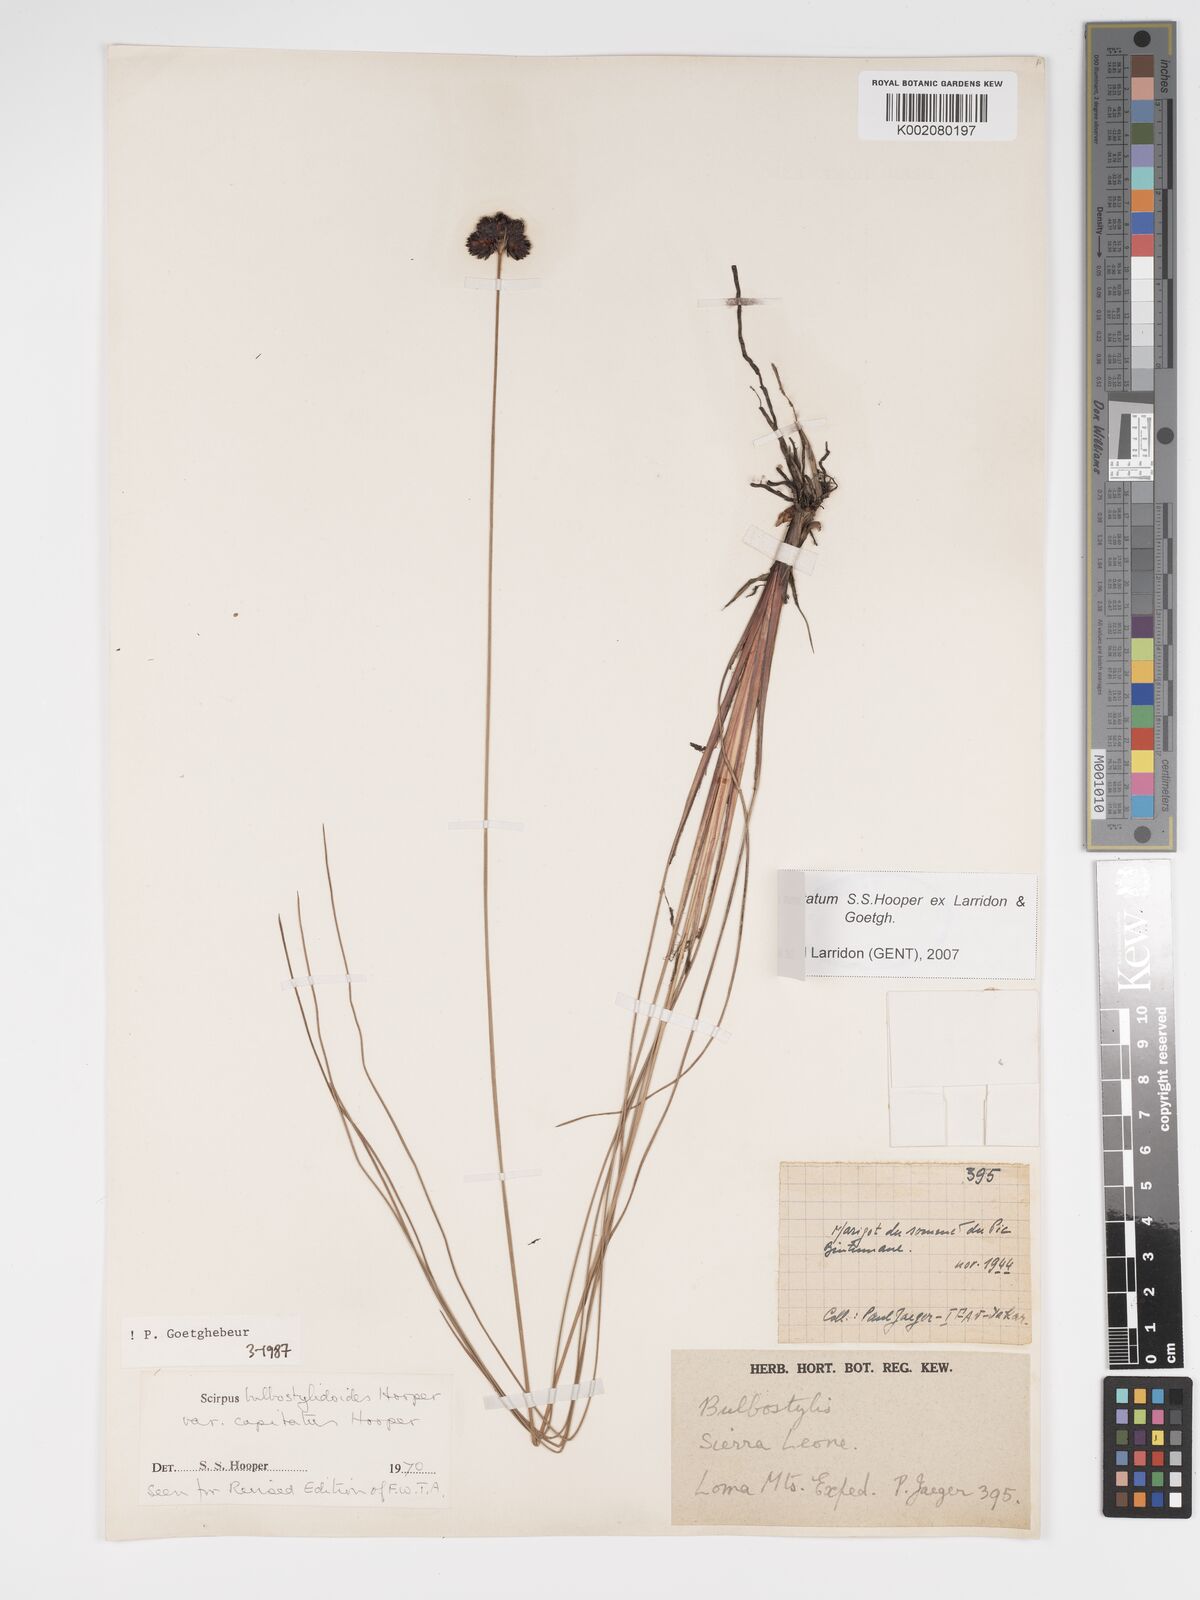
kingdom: Plantae
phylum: Tracheophyta
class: Liliopsida
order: Poales
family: Cyperaceae
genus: Bulbostylis
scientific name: Bulbostylis neocapitata
